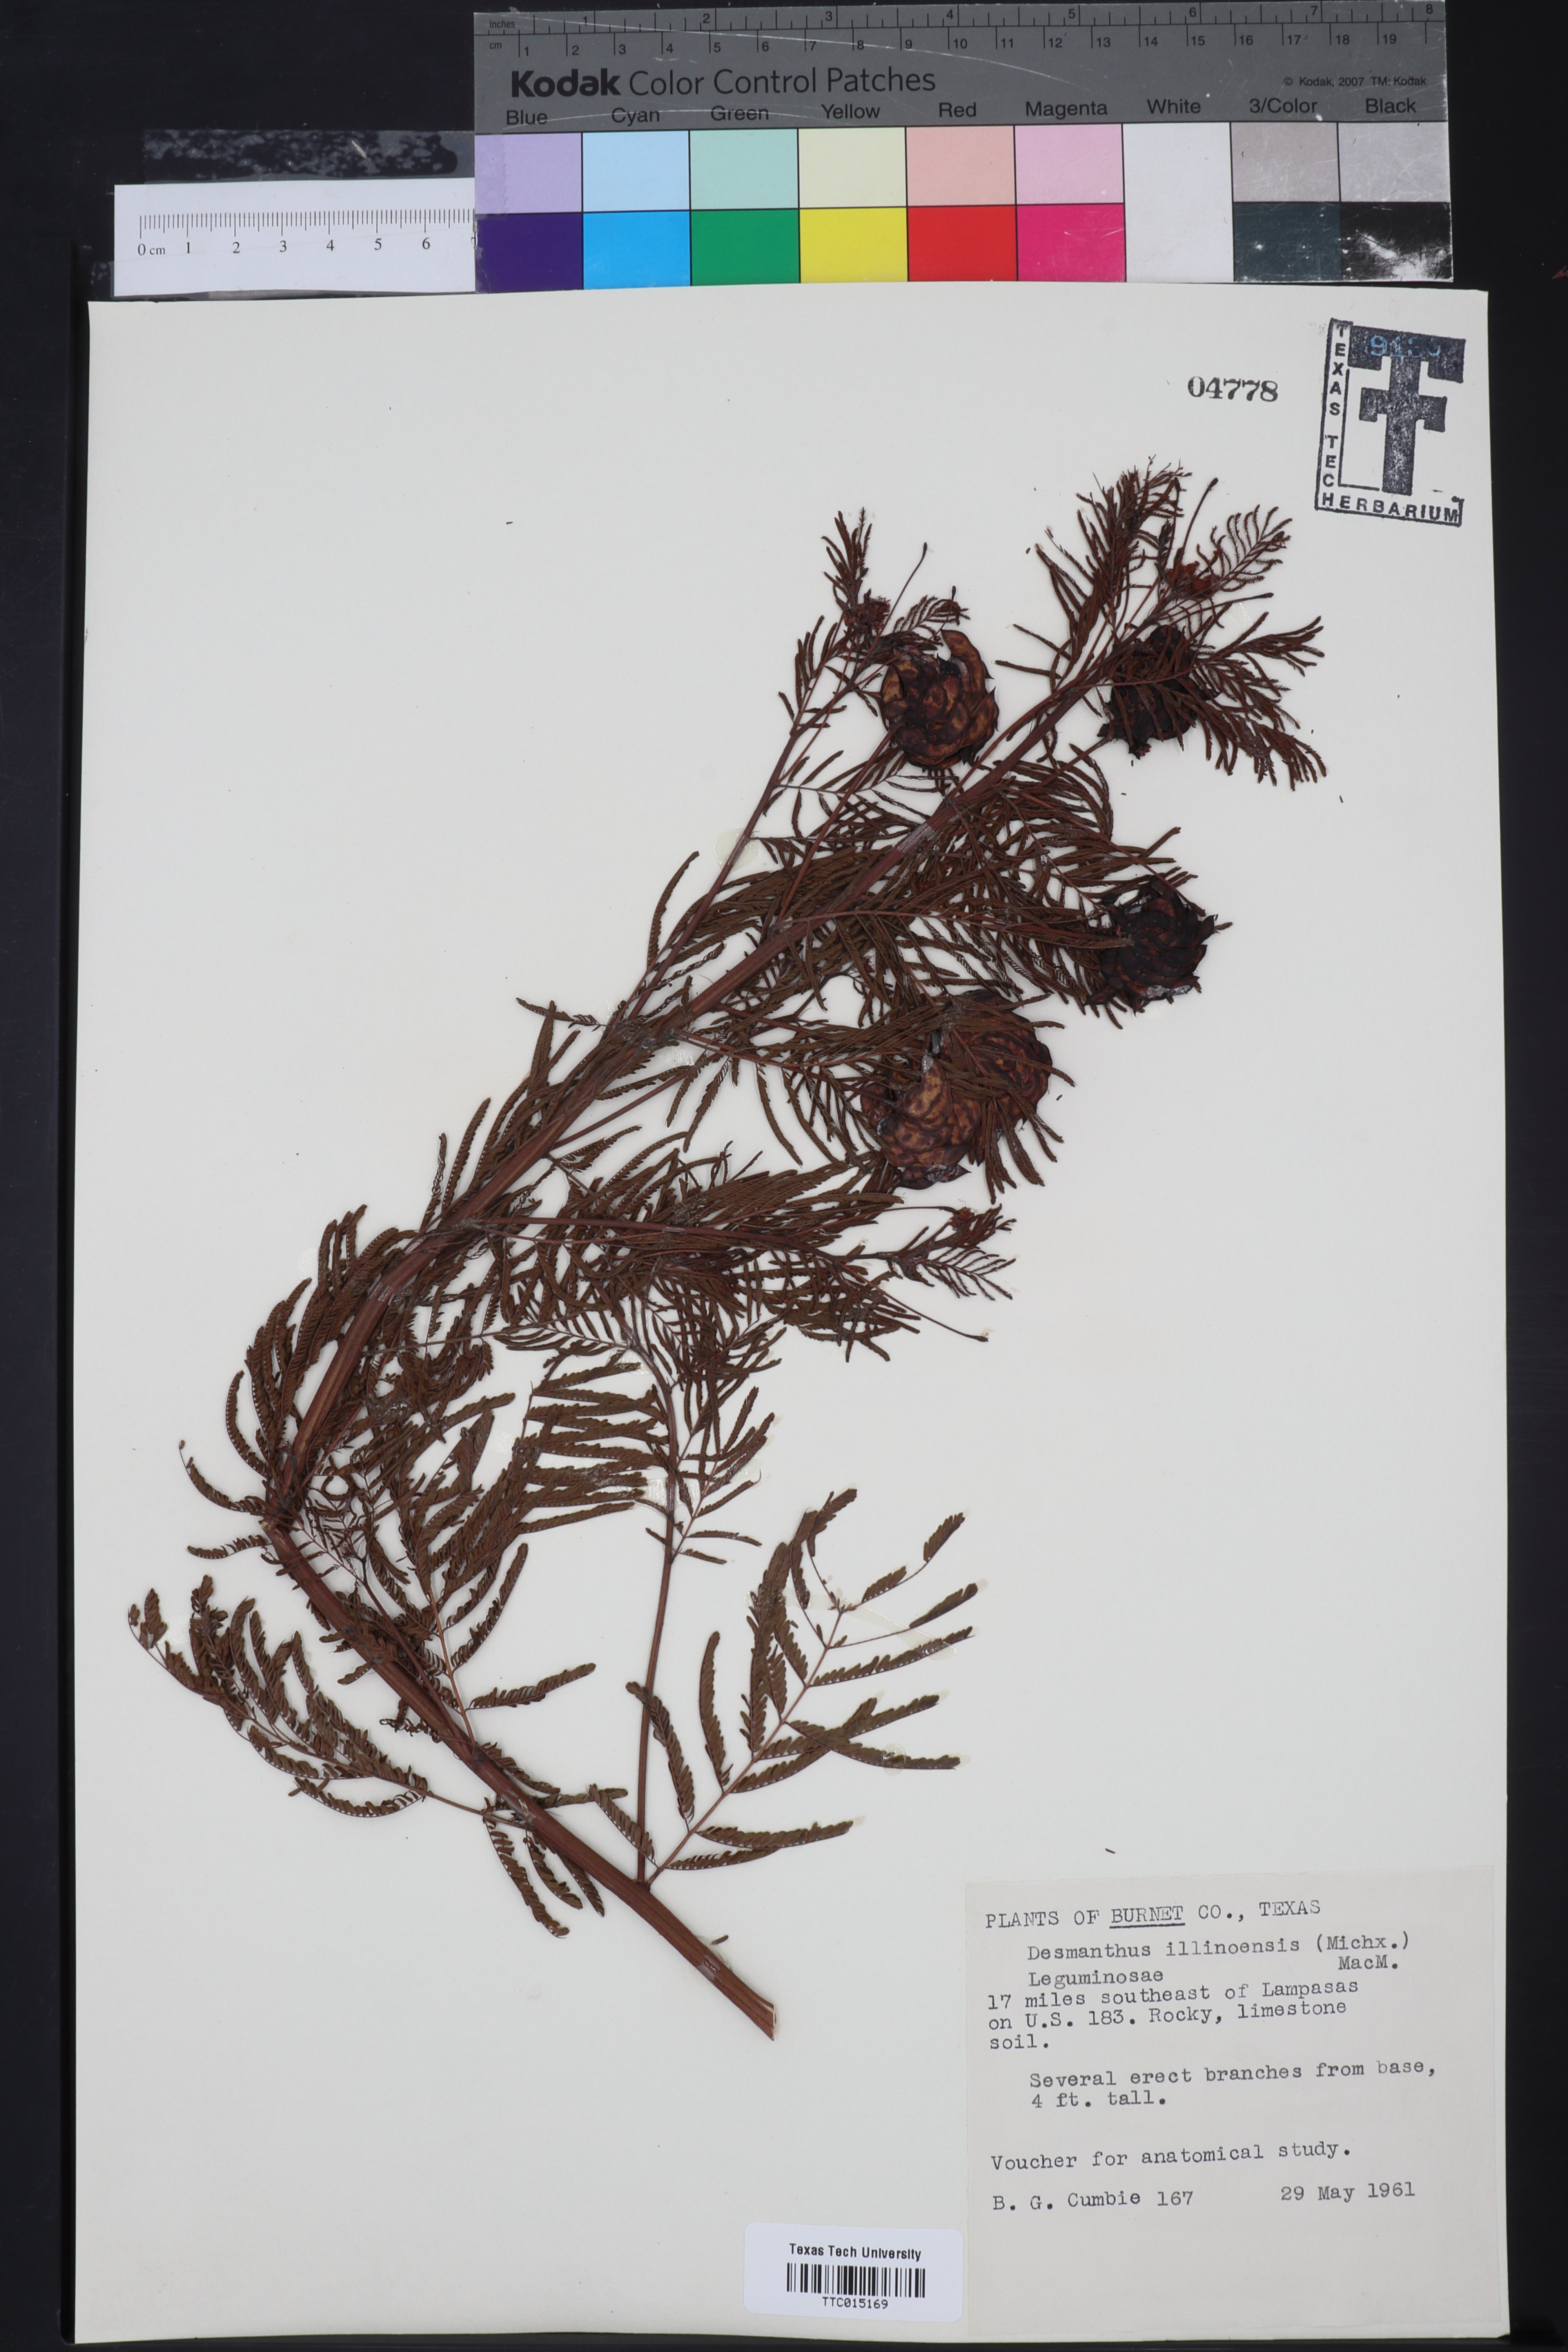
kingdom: Plantae
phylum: Tracheophyta
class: Magnoliopsida
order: Fabales
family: Fabaceae
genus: Desmanthus
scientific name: Desmanthus illinoensis
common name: Illinois bundle-flower
